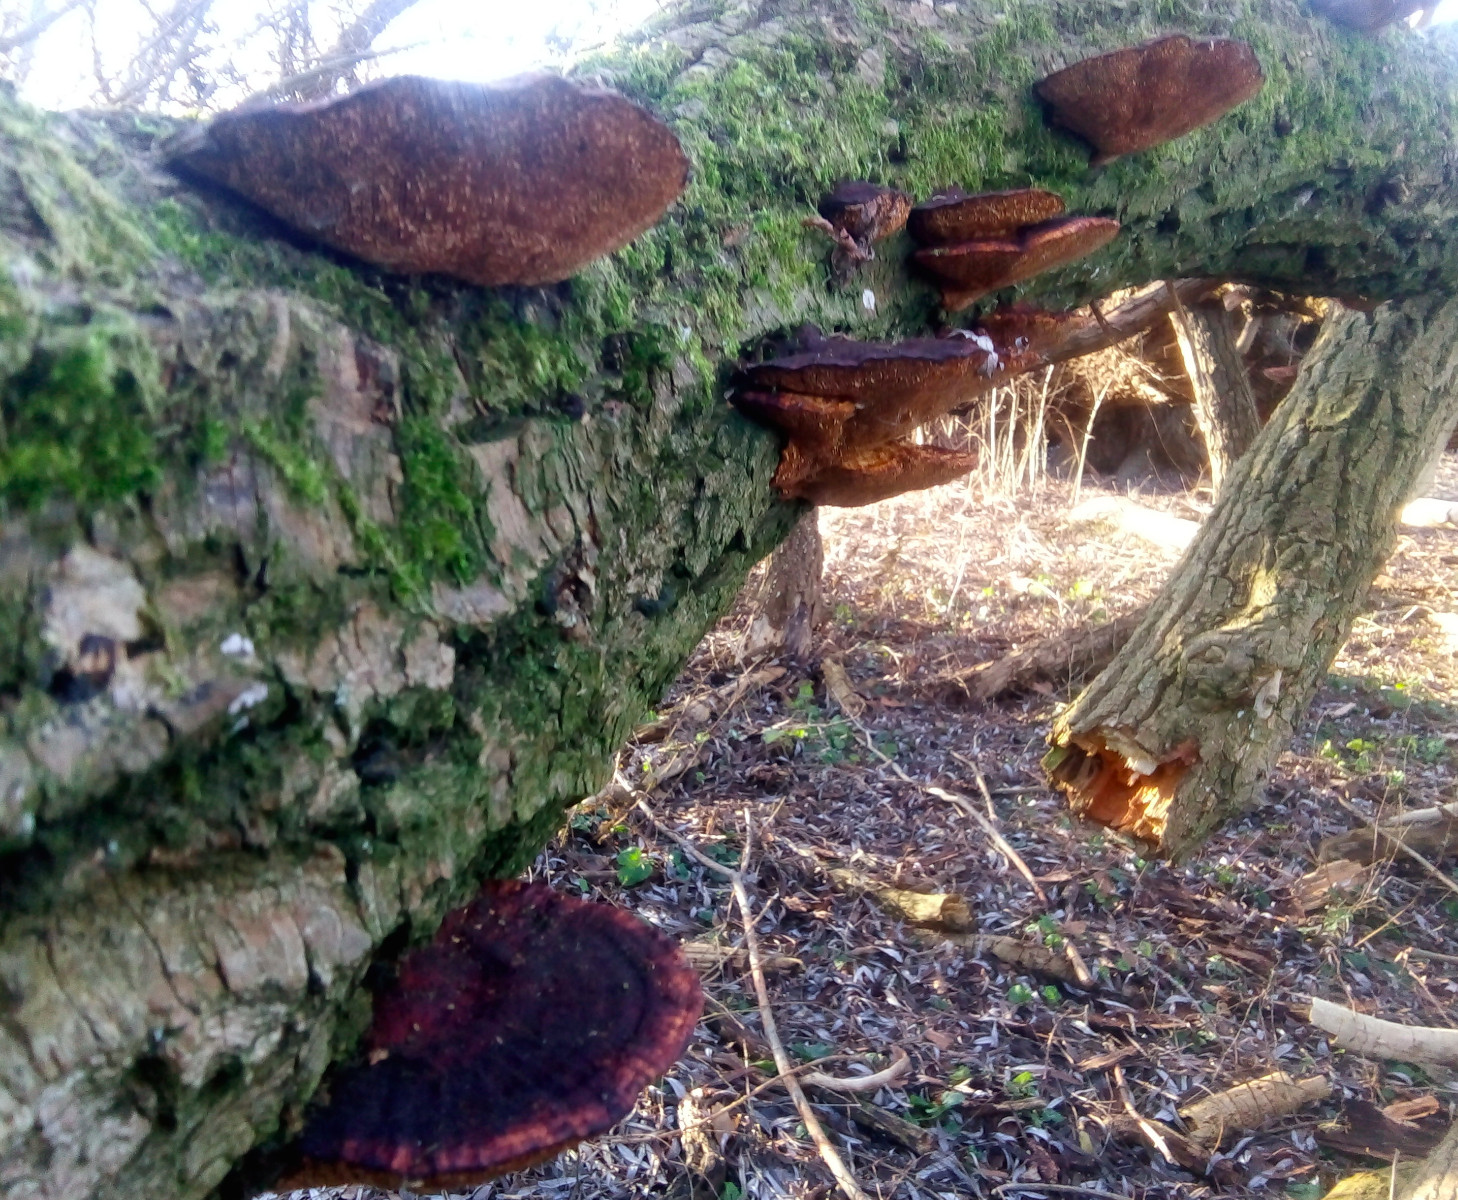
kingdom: Fungi
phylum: Basidiomycota
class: Agaricomycetes
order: Polyporales
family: Polyporaceae
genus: Daedaleopsis
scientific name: Daedaleopsis confragosa
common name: rødmende læderporesvamp
